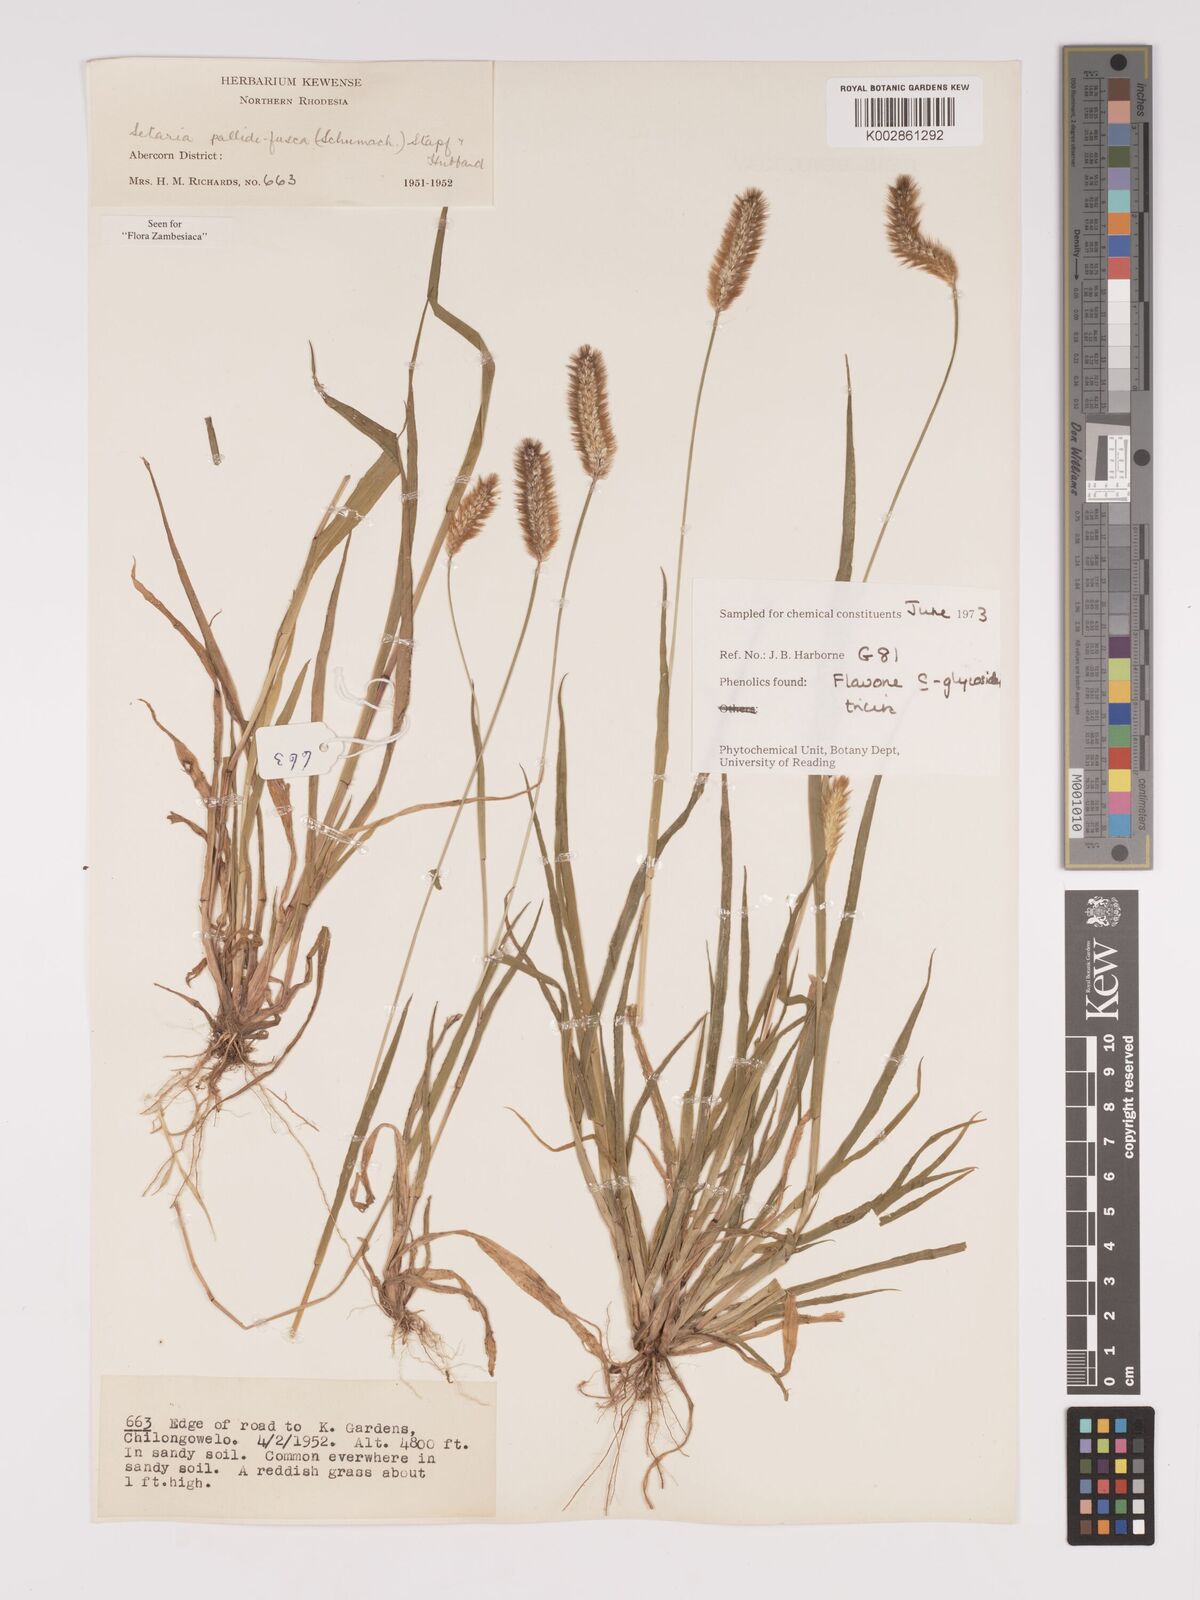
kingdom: Plantae
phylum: Tracheophyta
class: Liliopsida
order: Poales
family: Poaceae
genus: Setaria
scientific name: Setaria pumila
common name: Yellow bristle-grass
